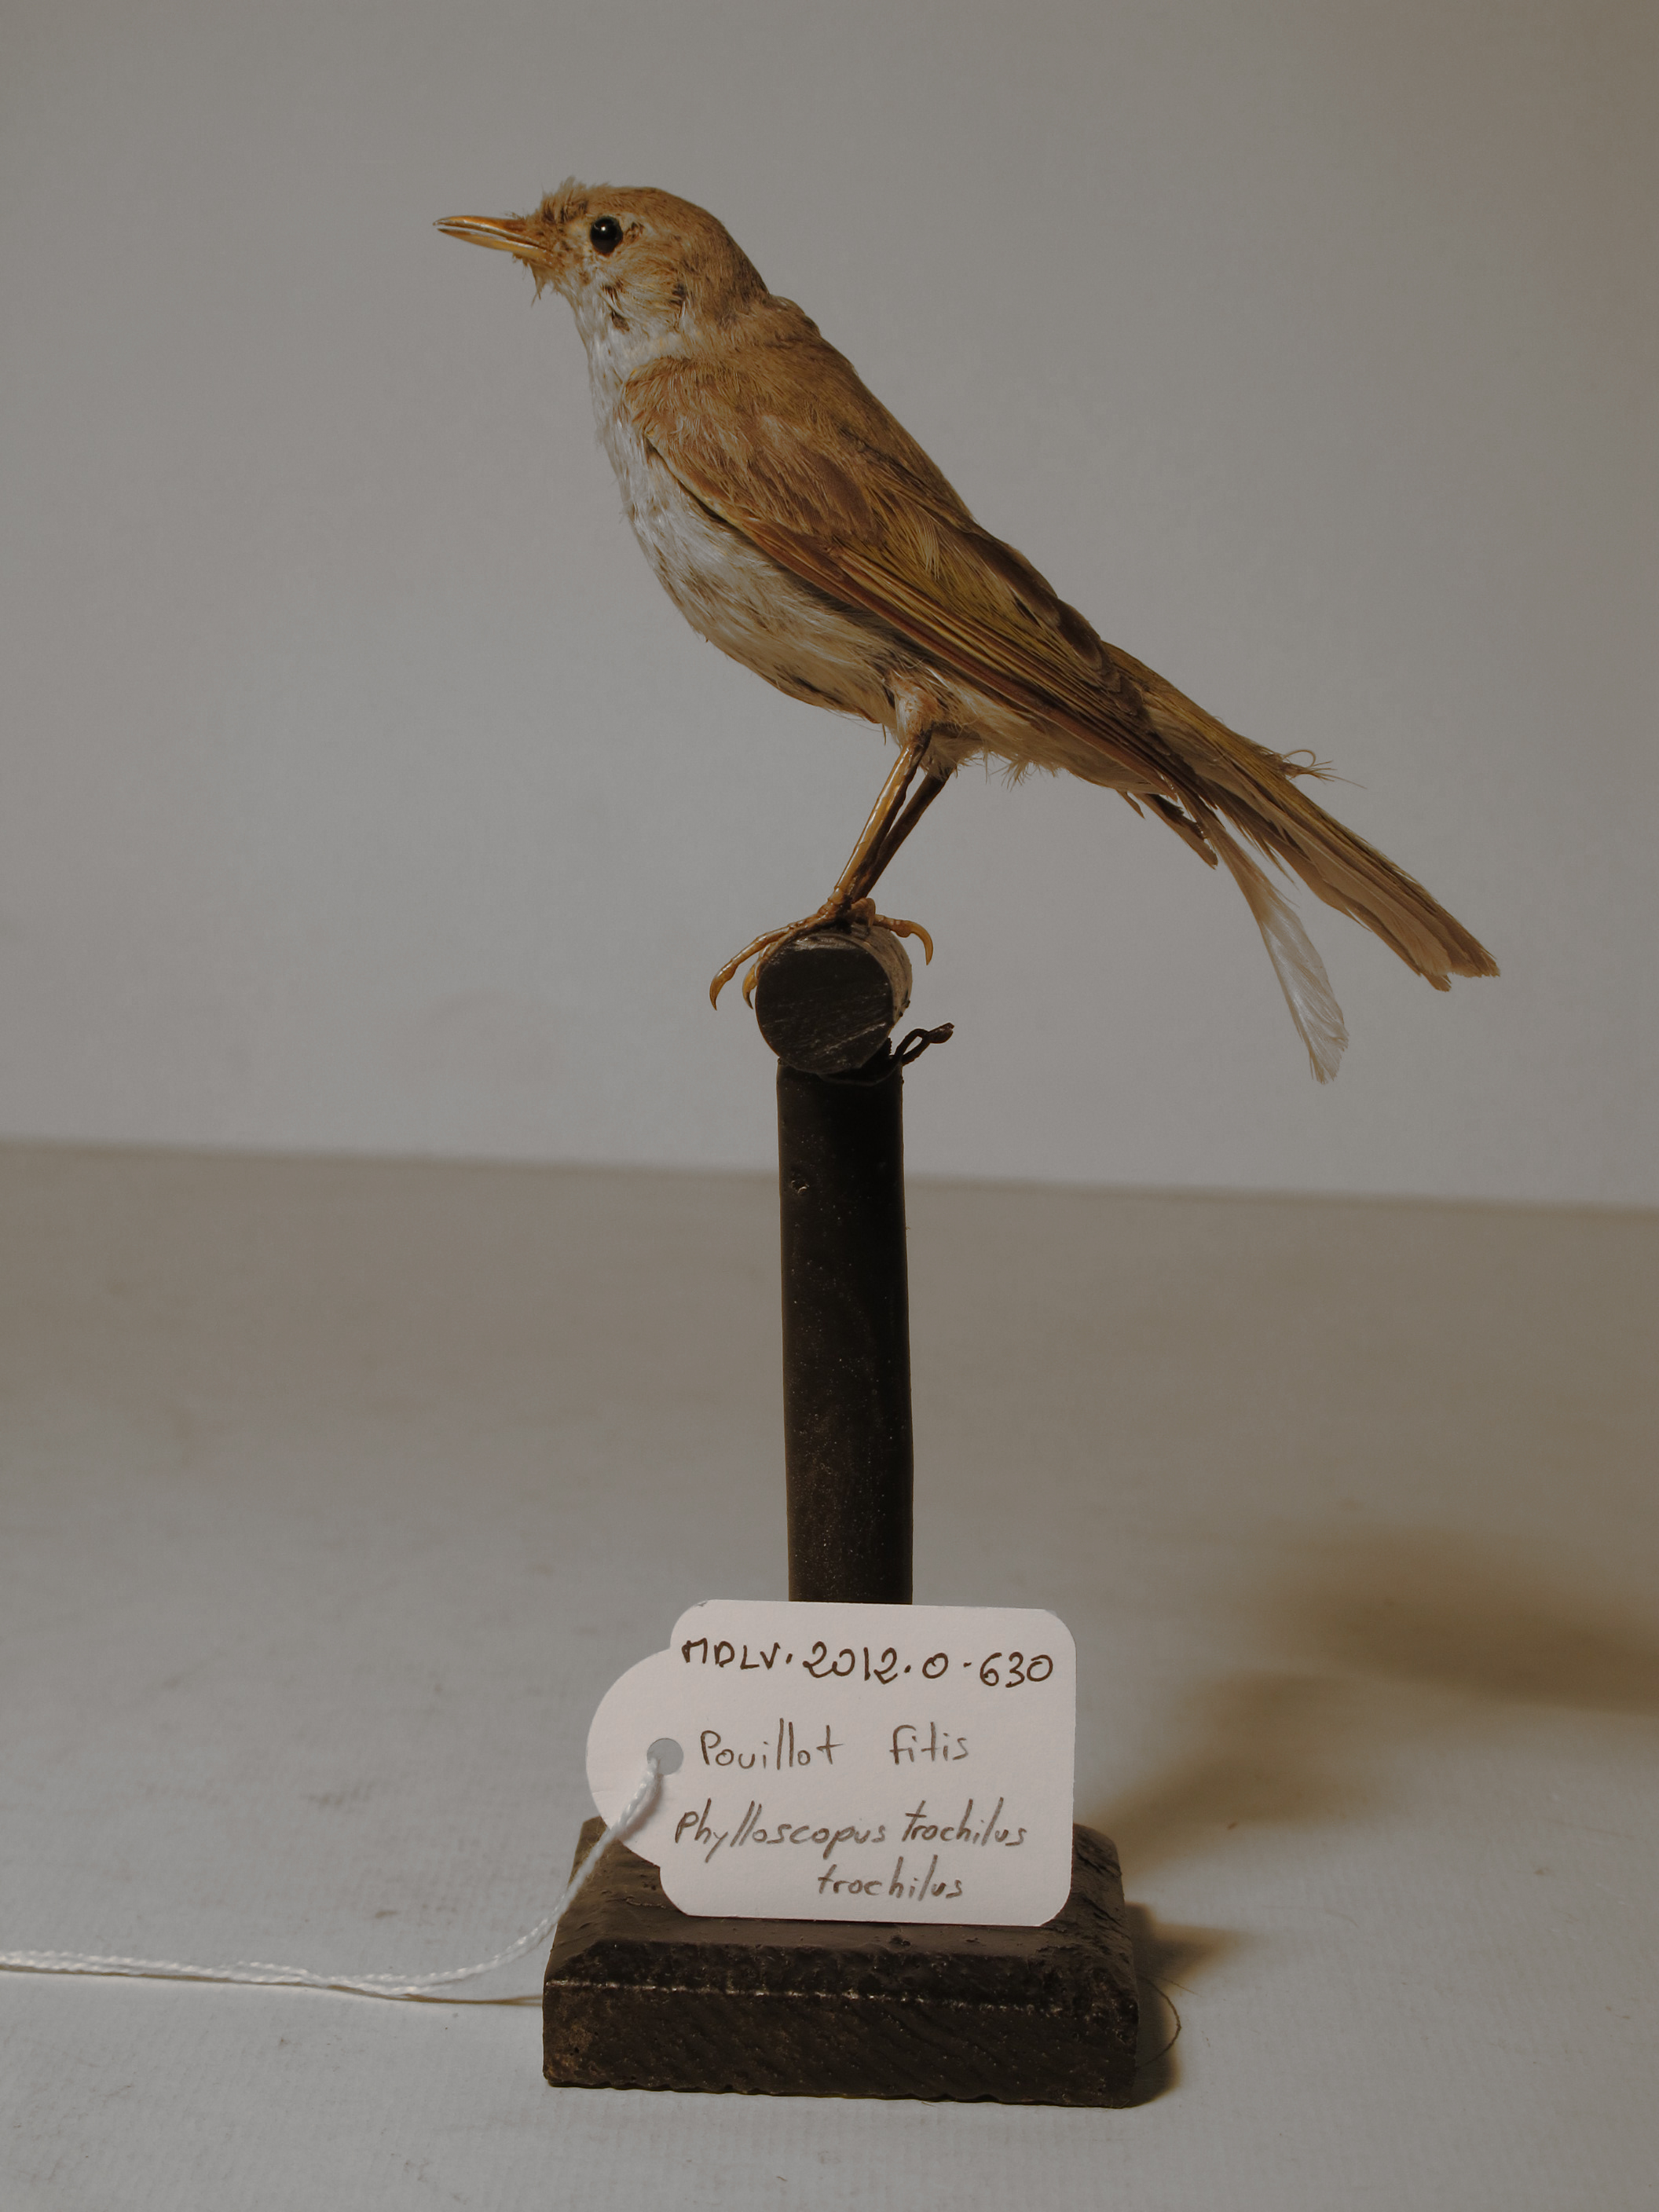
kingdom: Animalia
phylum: Chordata
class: Aves
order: Passeriformes
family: Phylloscopidae
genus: Phylloscopus
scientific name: Phylloscopus trochilus
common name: Willow Warbler
